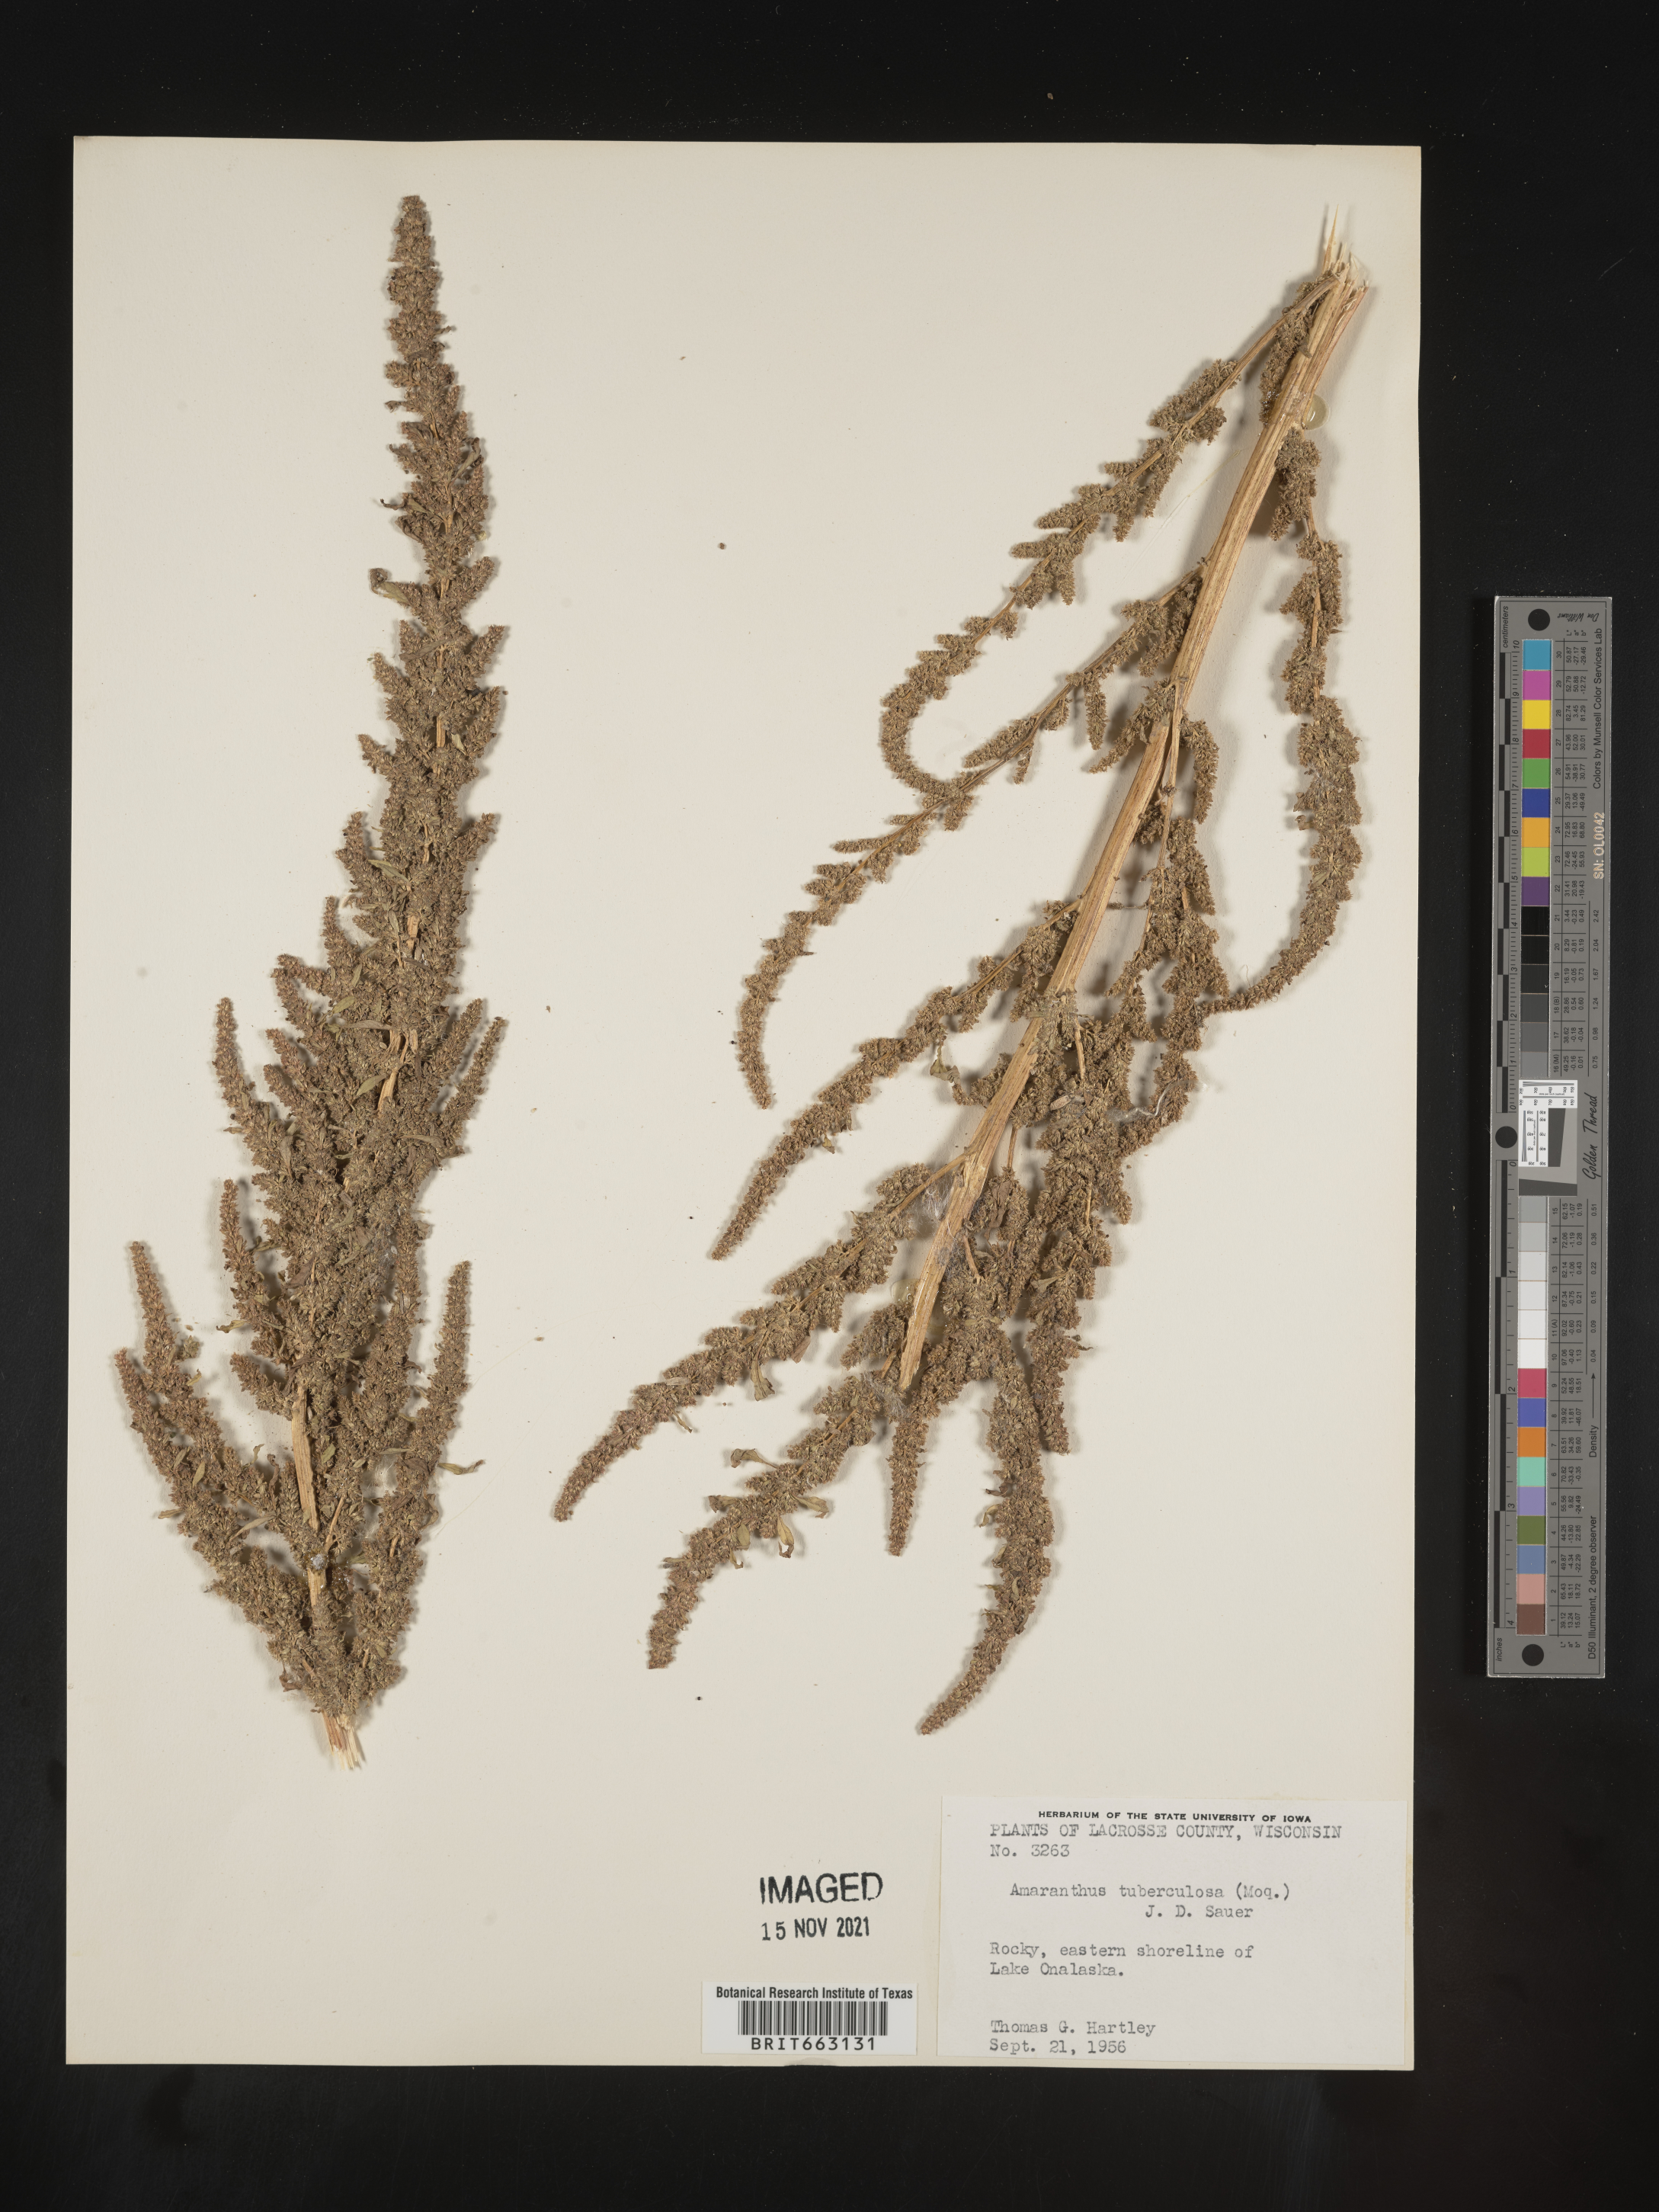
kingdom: Plantae
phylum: Tracheophyta
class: Magnoliopsida
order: Caryophyllales
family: Amaranthaceae
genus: Amaranthus
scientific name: Amaranthus tuberculatus
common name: Rough-fruit amaranth
